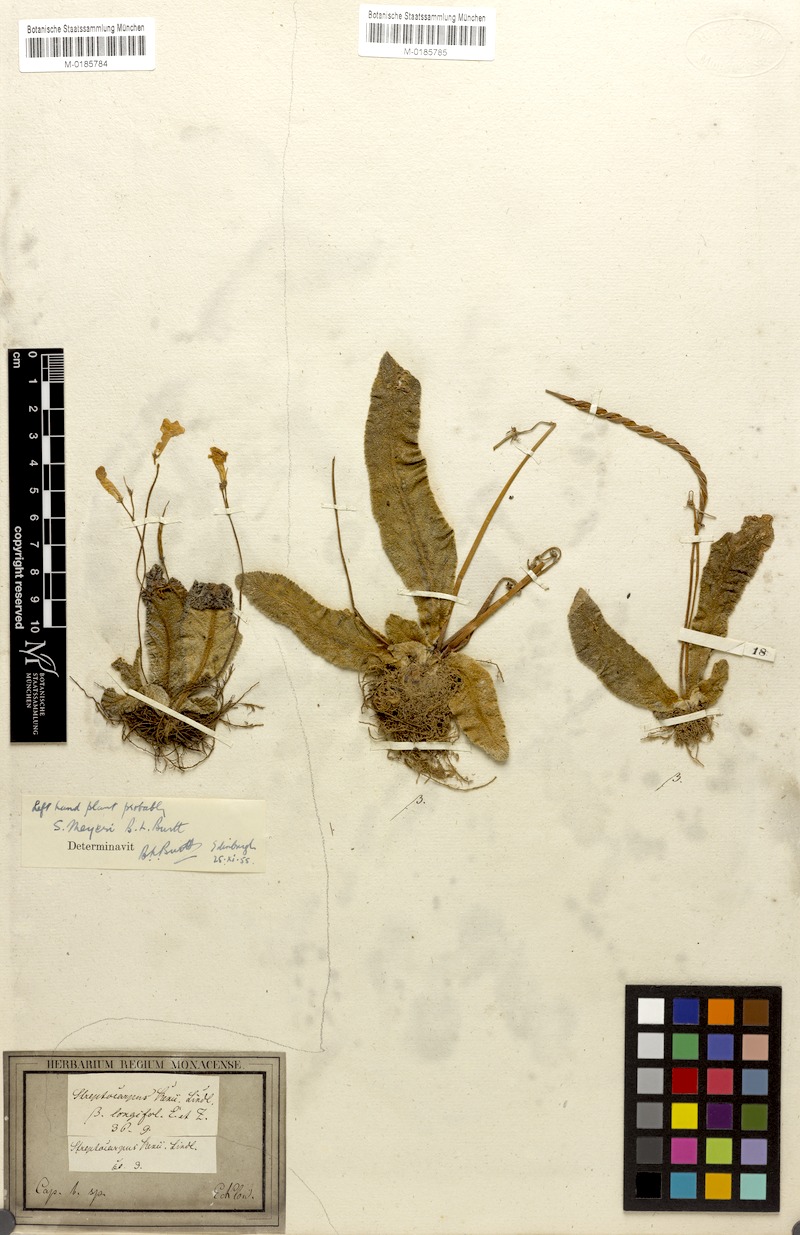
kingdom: Plantae
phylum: Tracheophyta
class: Magnoliopsida
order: Lamiales
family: Gesneriaceae
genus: Streptocarpus
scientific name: Streptocarpus meyeri
